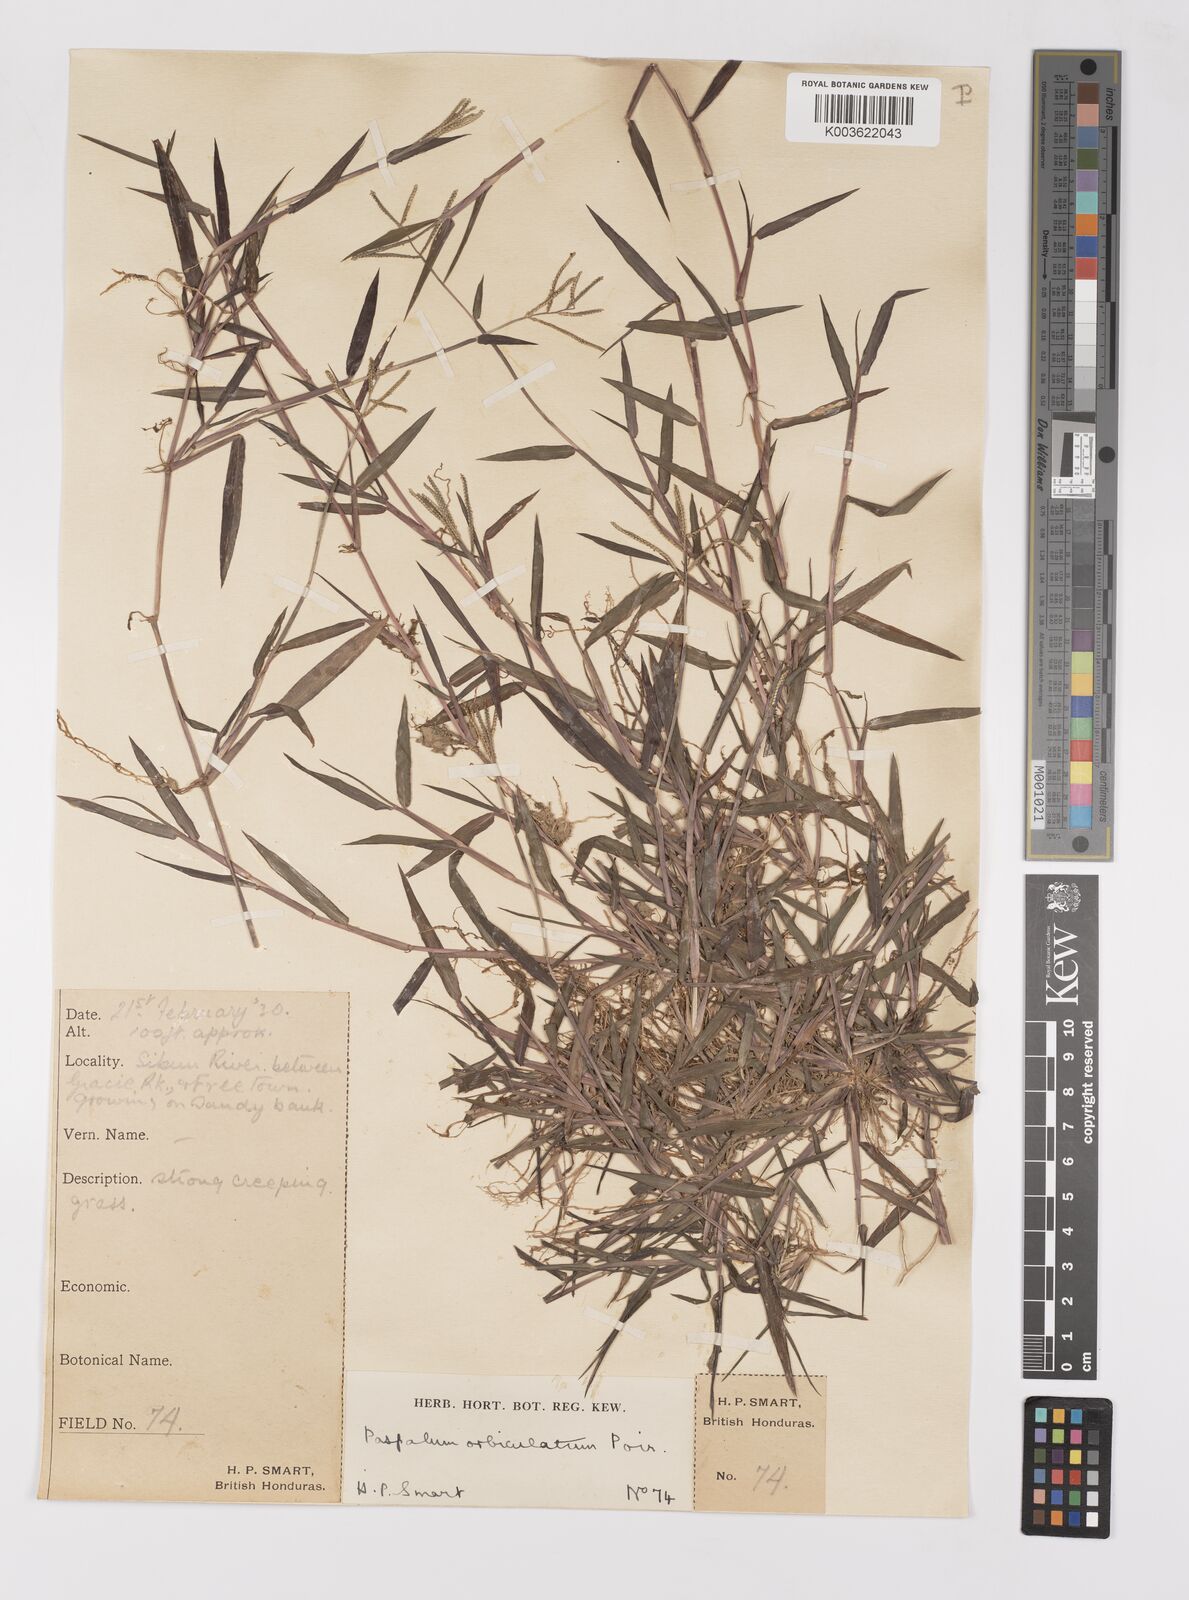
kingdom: Plantae
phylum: Tracheophyta
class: Liliopsida
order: Poales
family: Poaceae
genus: Paspalum
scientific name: Paspalum orbiculatum
